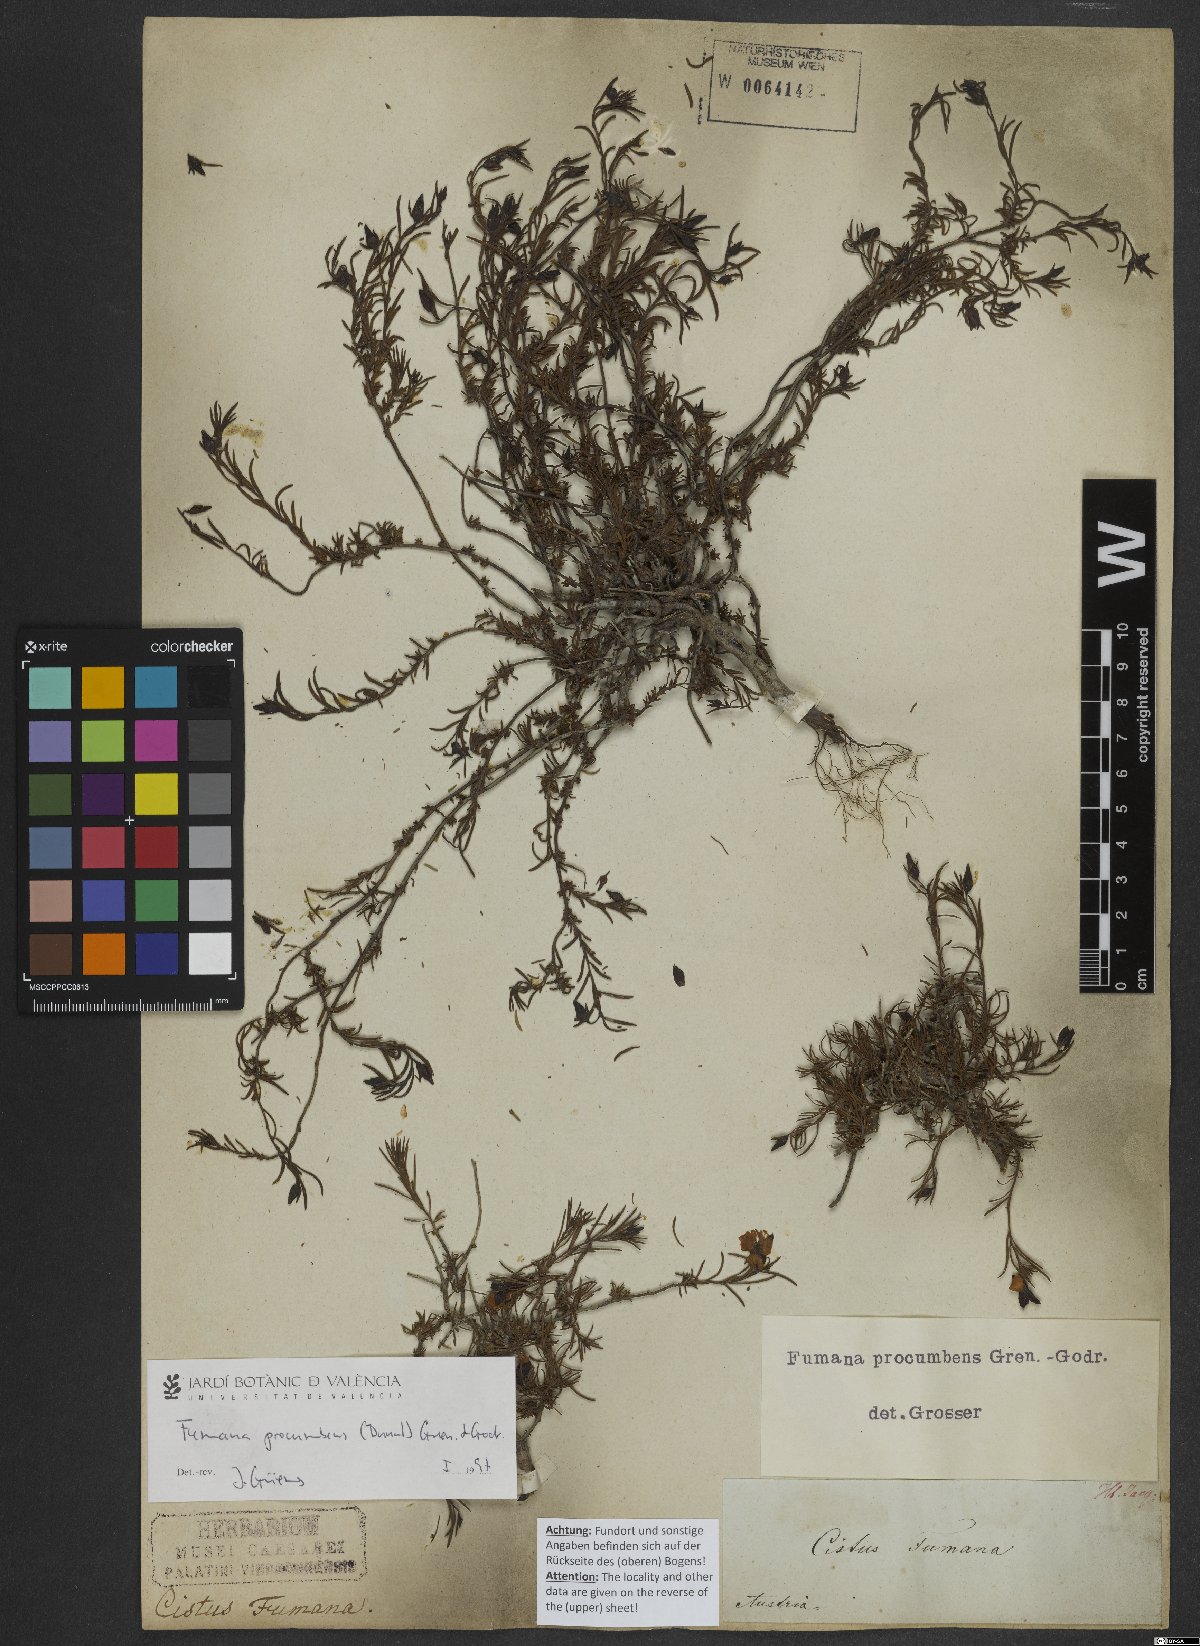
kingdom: Plantae
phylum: Tracheophyta
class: Magnoliopsida
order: Malvales
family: Cistaceae
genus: Fumana
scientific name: Fumana procumbens
